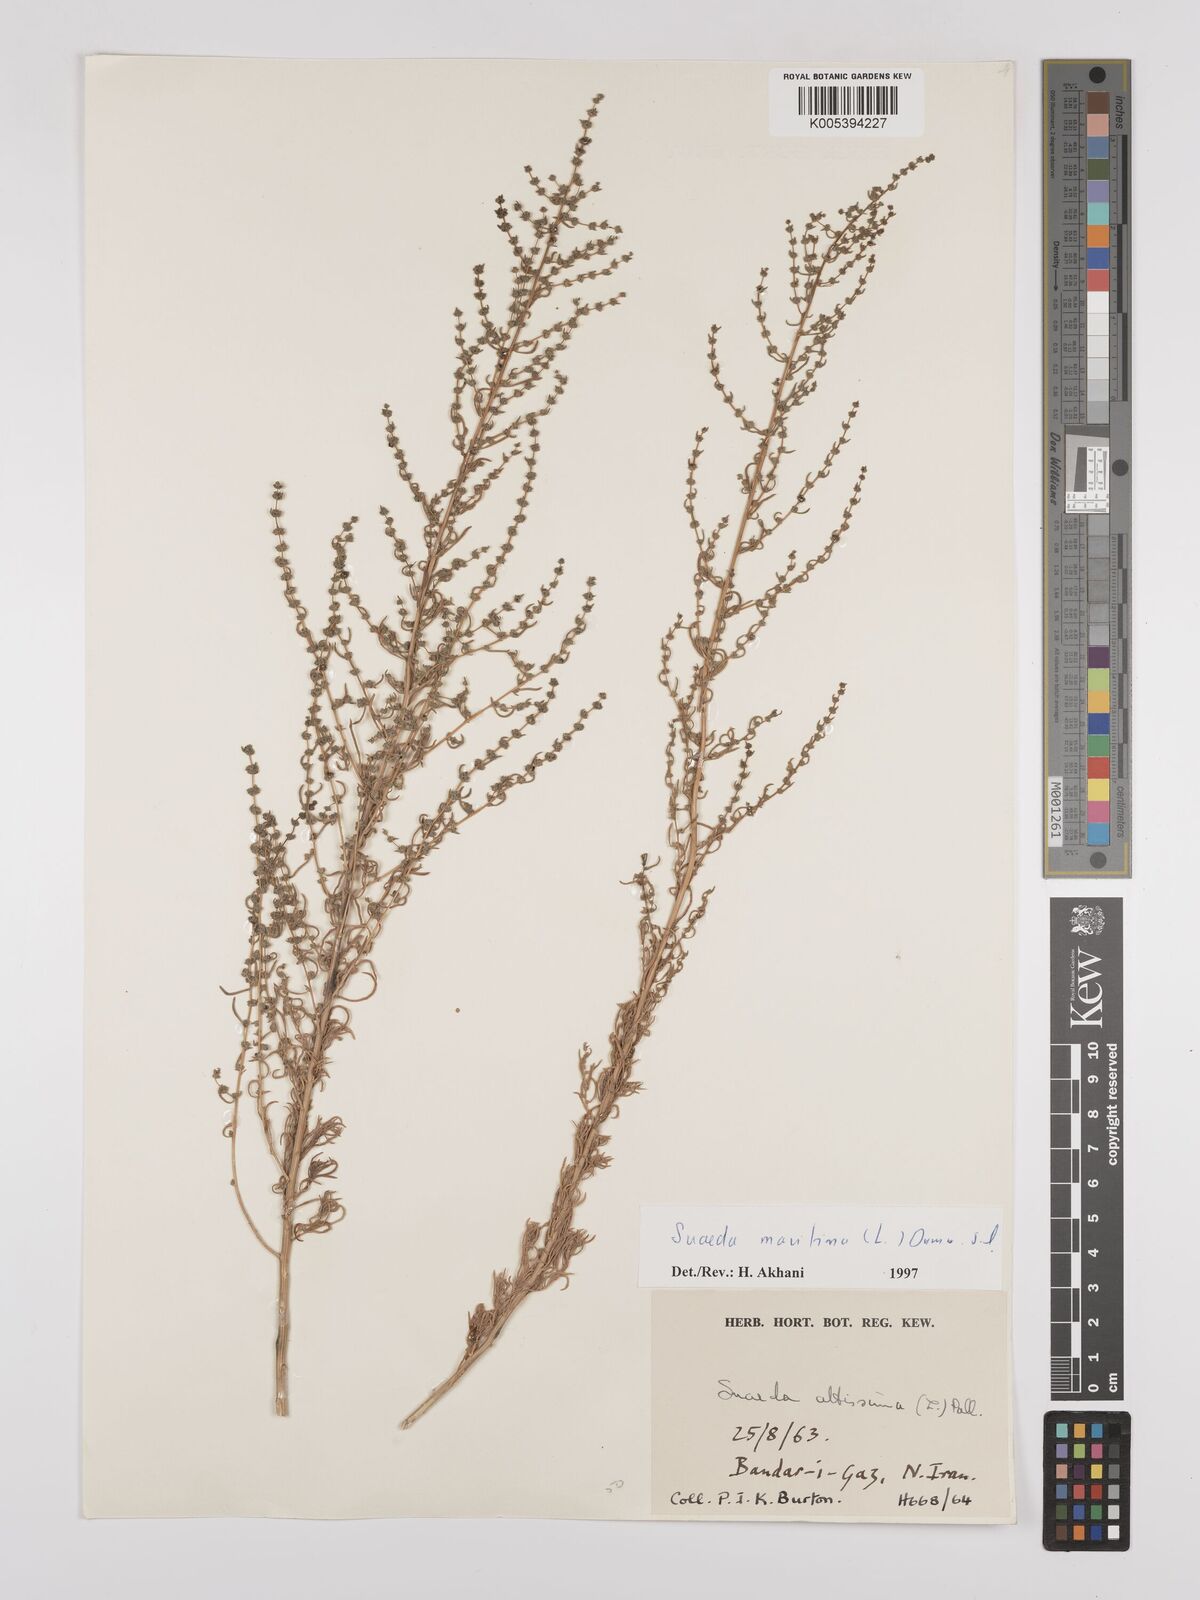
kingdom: Plantae
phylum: Tracheophyta
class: Magnoliopsida
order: Caryophyllales
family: Amaranthaceae
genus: Suaeda
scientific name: Suaeda
